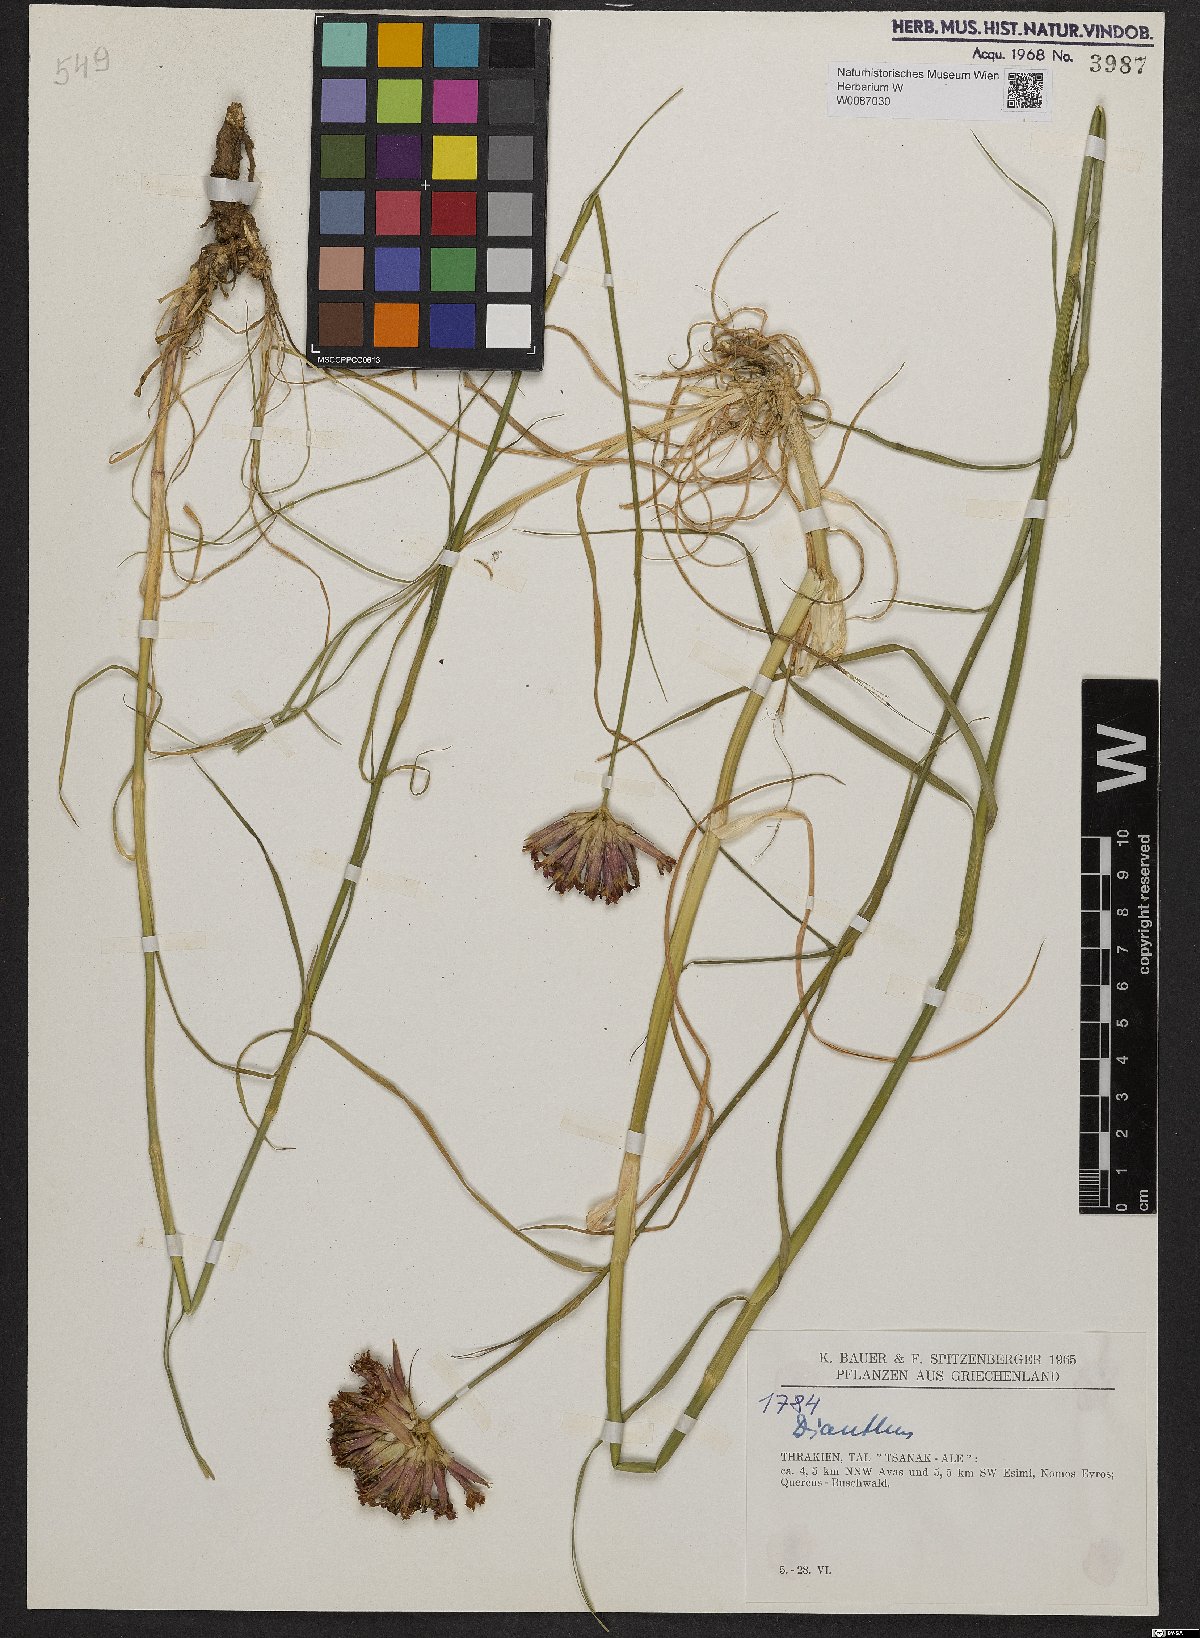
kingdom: Plantae
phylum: Tracheophyta
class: Magnoliopsida
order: Caryophyllales
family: Caryophyllaceae
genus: Dianthus
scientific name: Dianthus cruentus
